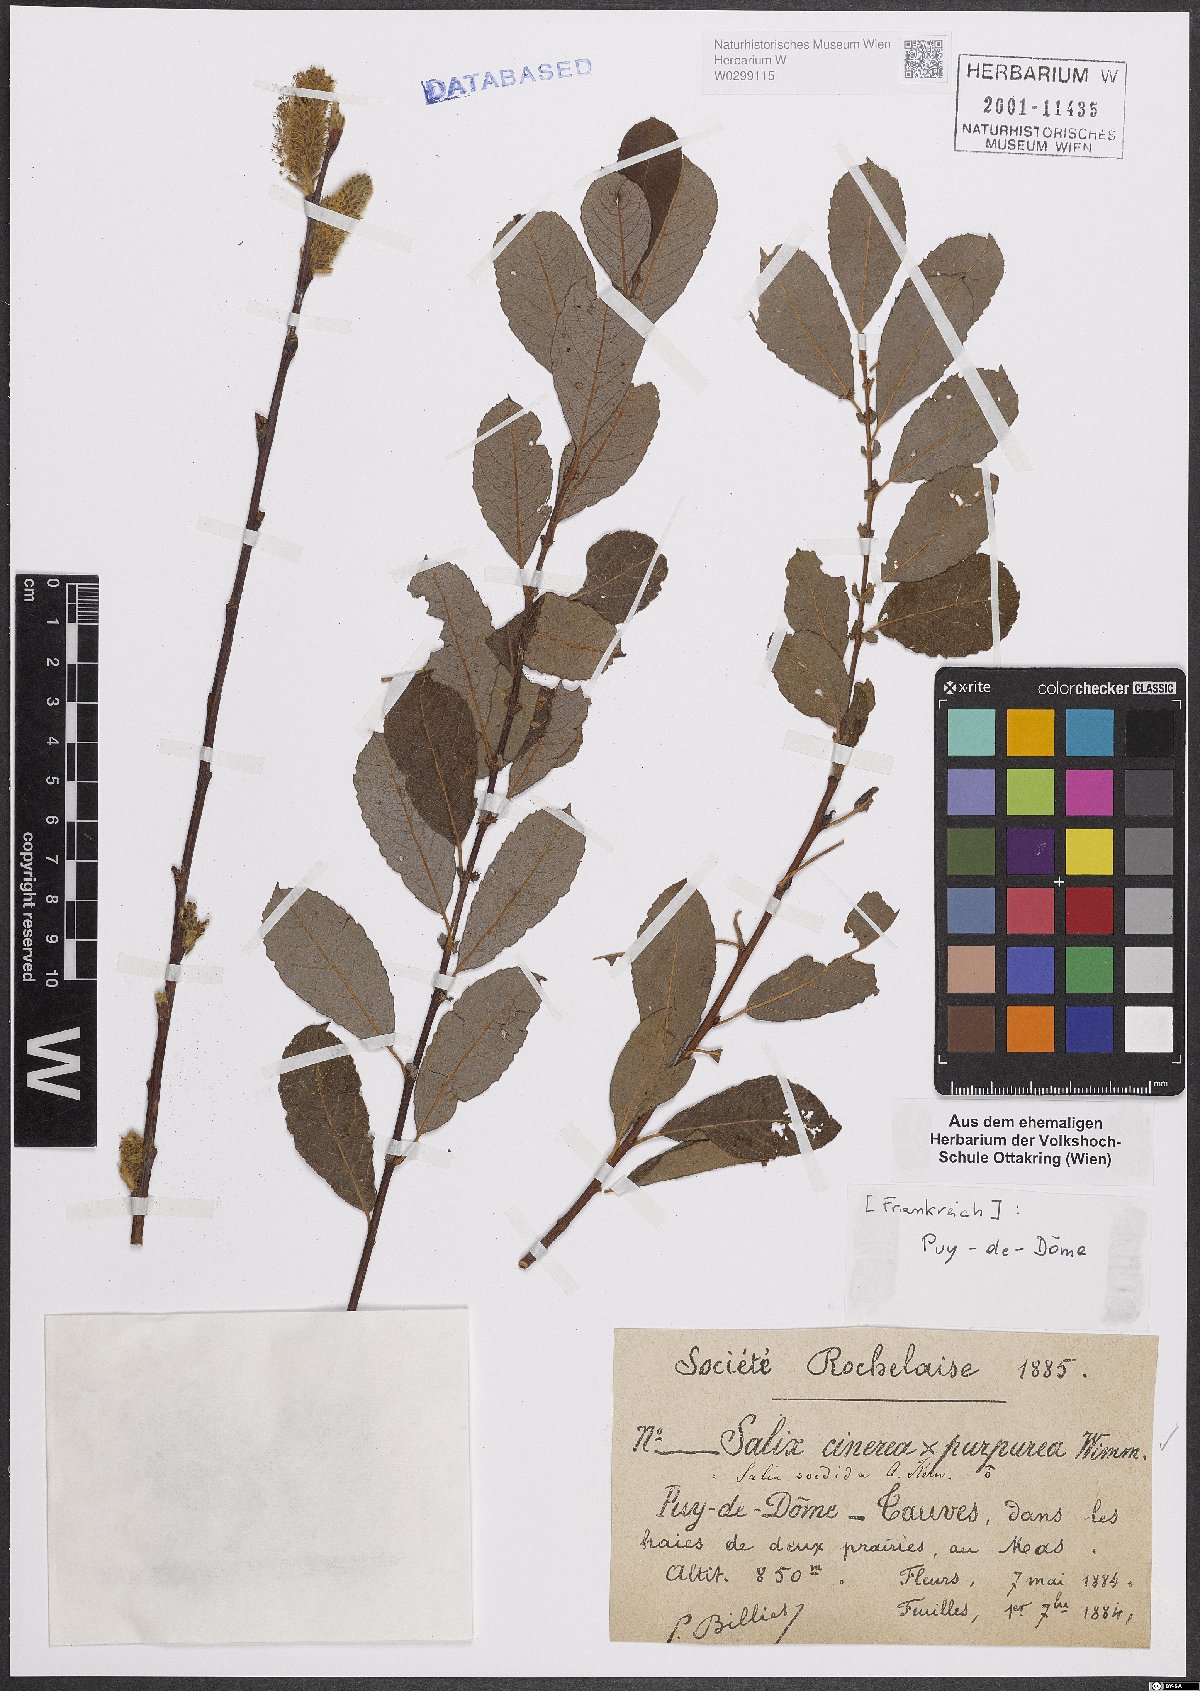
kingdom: Plantae
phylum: Tracheophyta
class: Magnoliopsida
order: Malpighiales
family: Salicaceae
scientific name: Salicaceae
